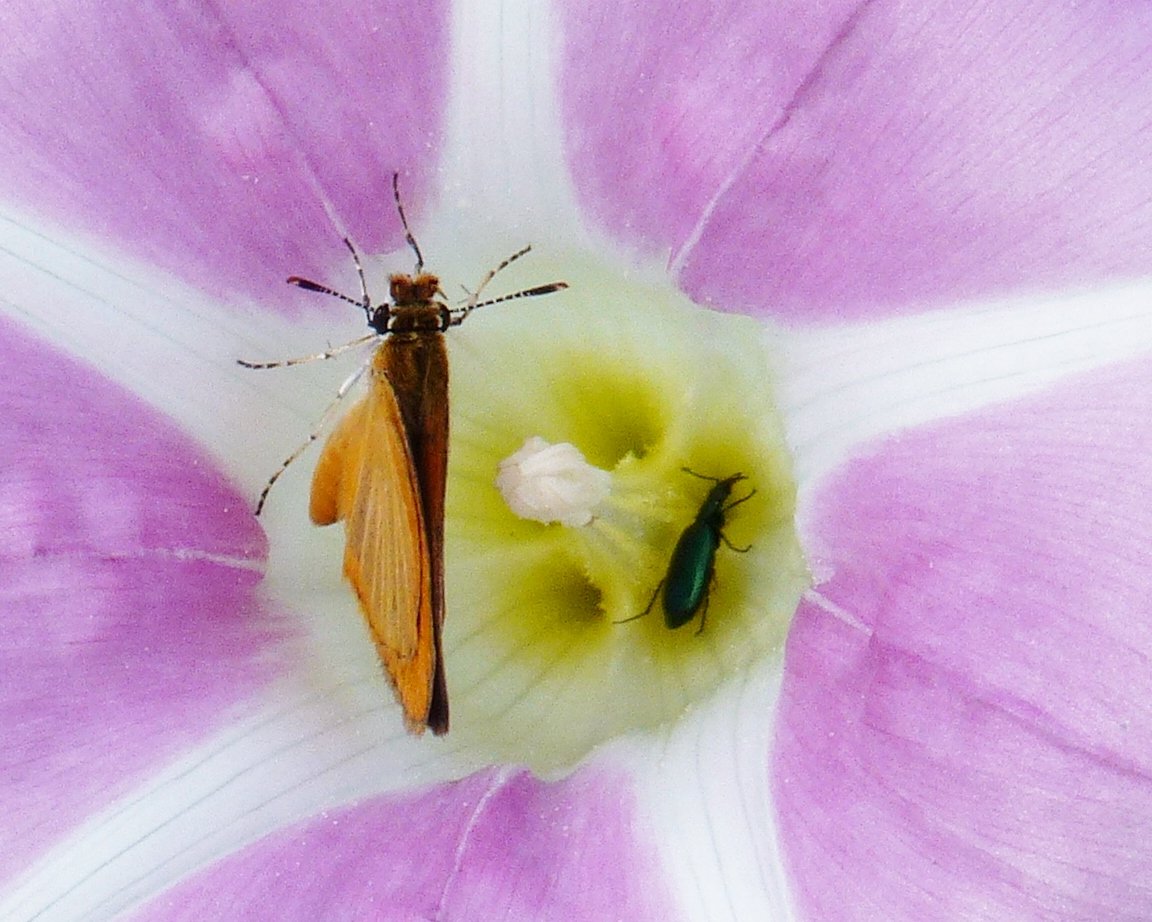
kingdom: Animalia
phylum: Arthropoda
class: Insecta
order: Lepidoptera
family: Hesperiidae
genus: Ancyloxypha
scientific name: Ancyloxypha numitor
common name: Least Skipper
